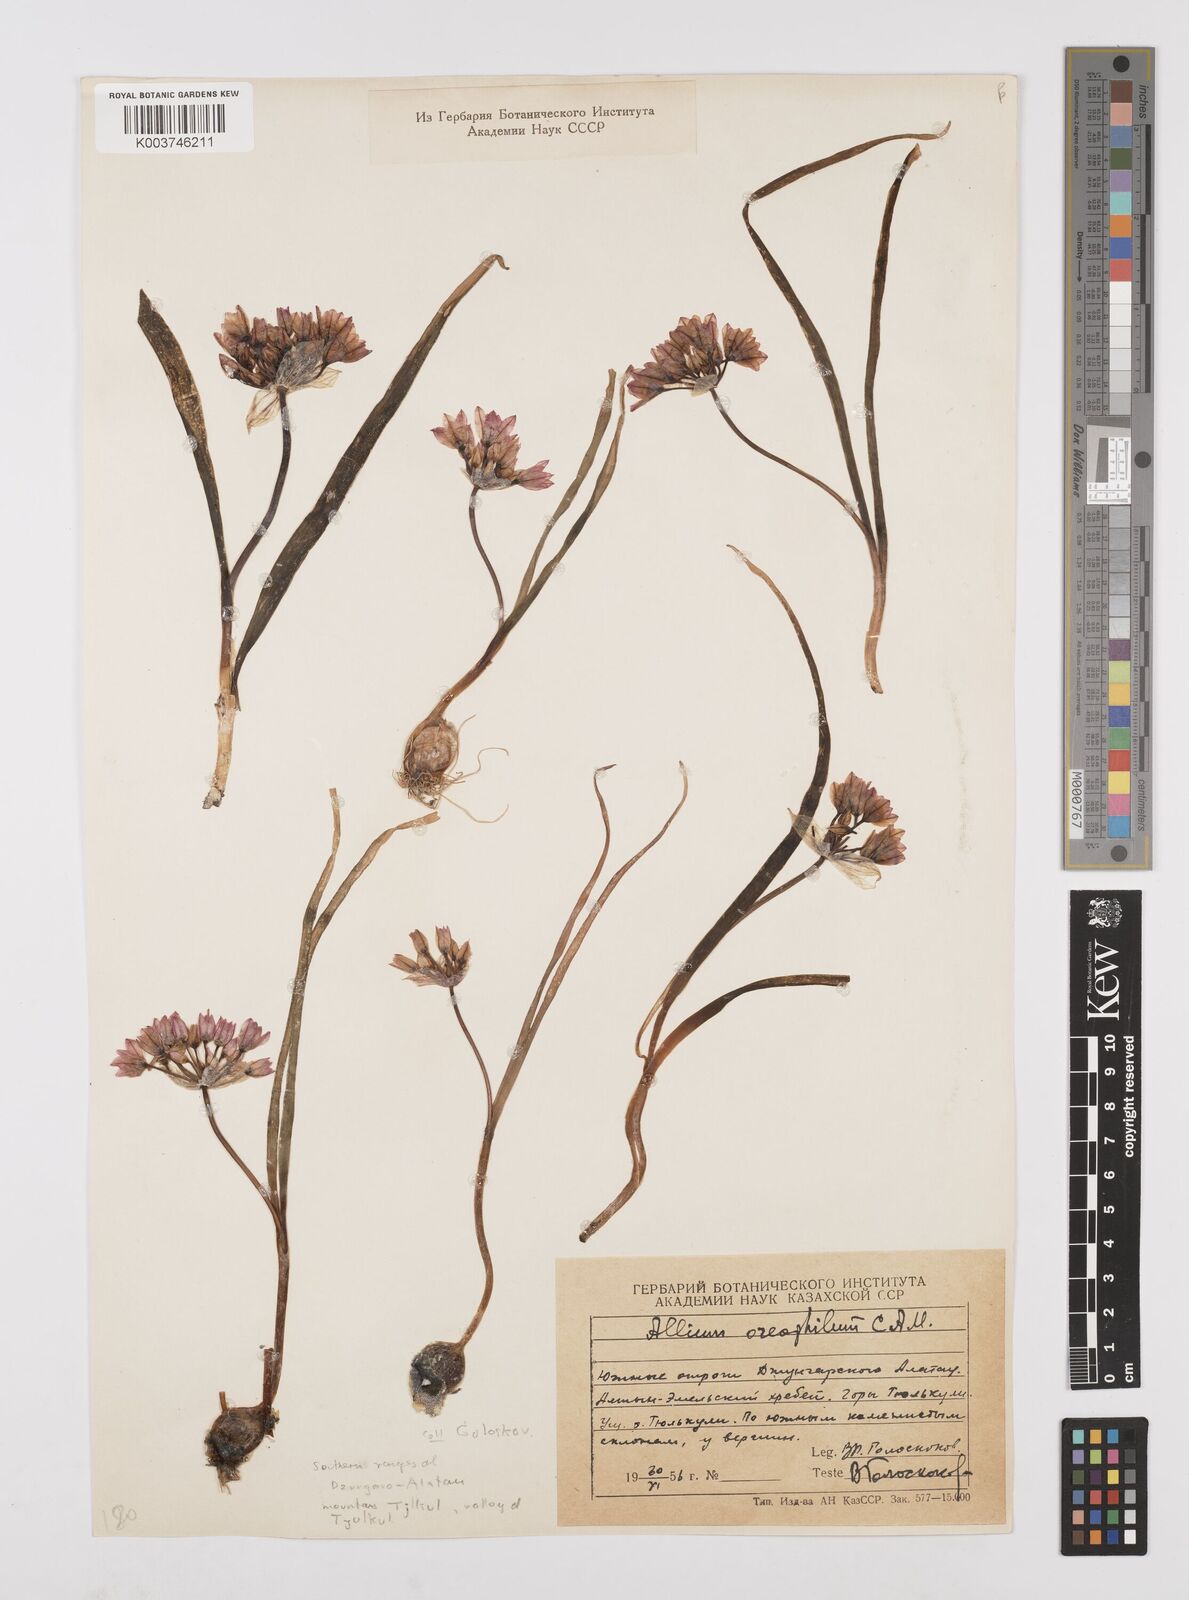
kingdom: Plantae
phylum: Tracheophyta
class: Liliopsida
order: Asparagales
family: Amaryllidaceae
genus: Allium
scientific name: Allium oreophilum
